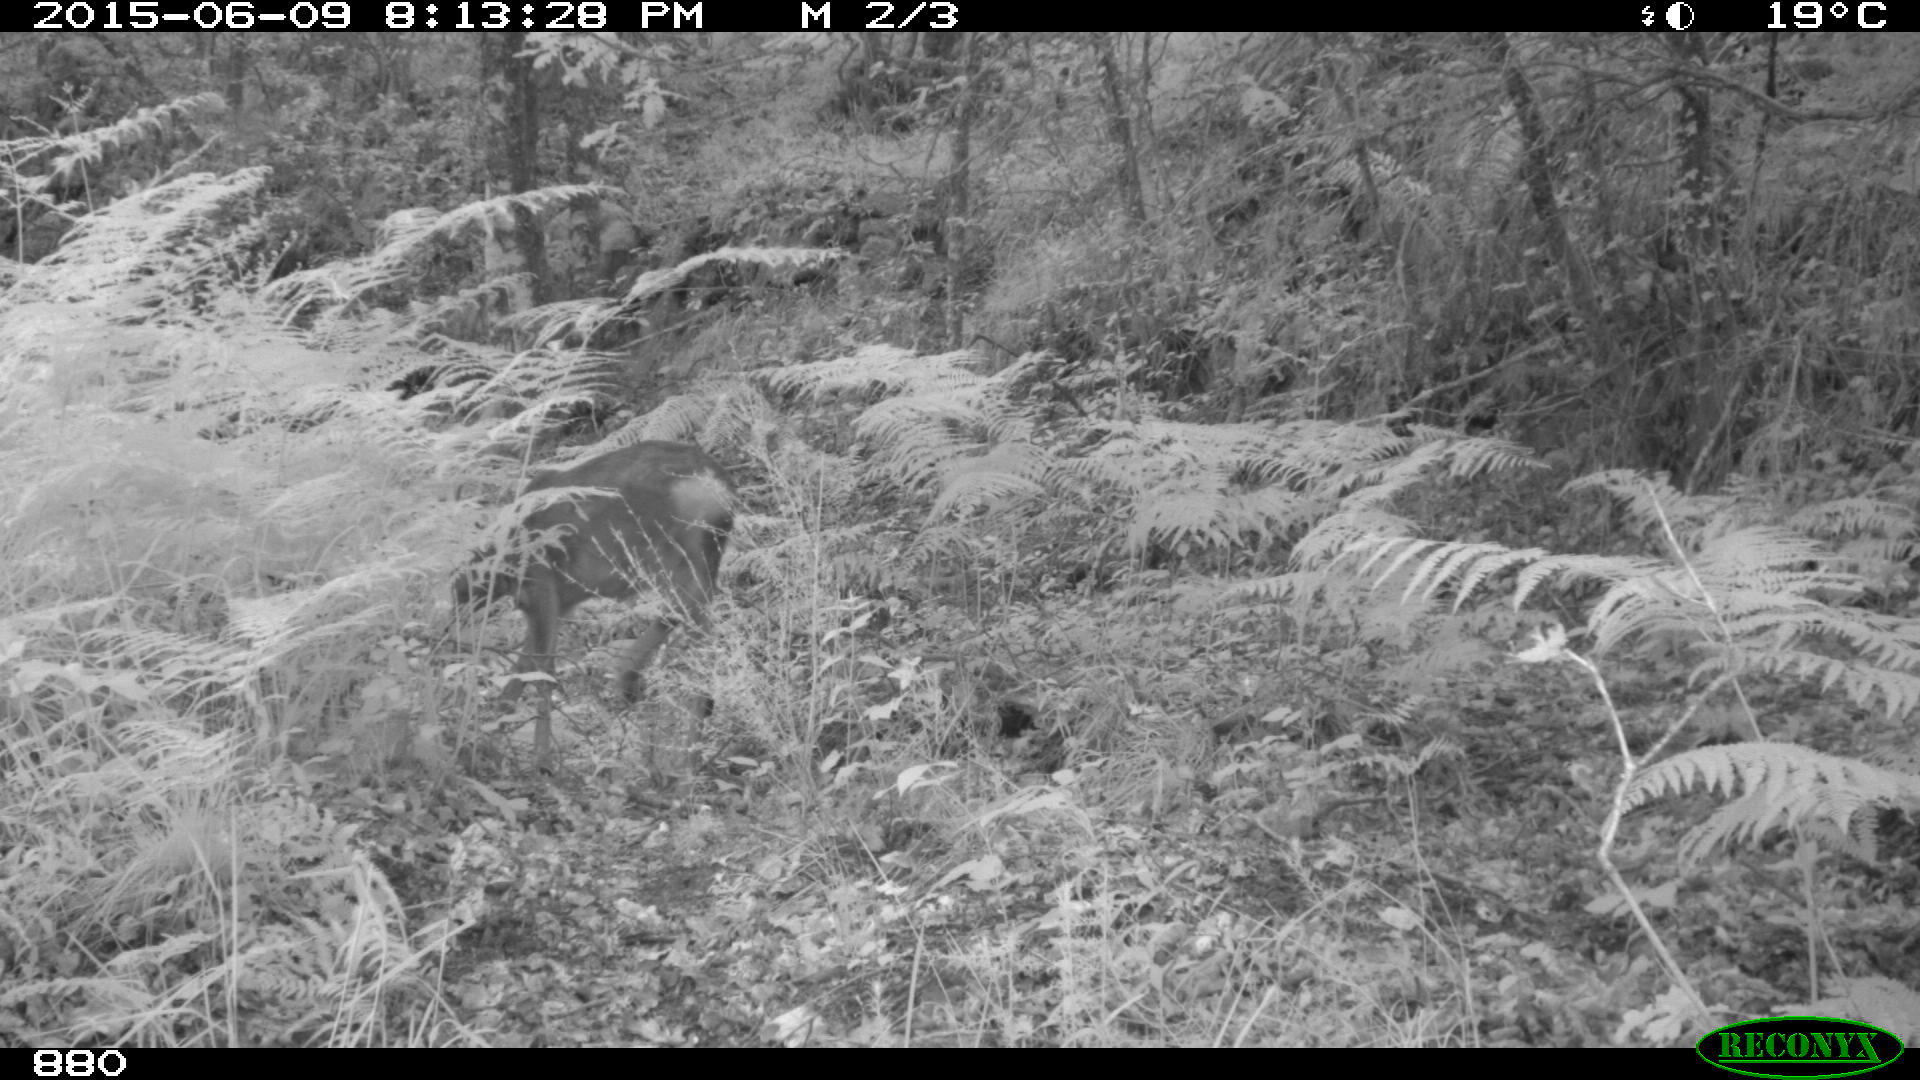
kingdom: Animalia
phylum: Chordata
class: Mammalia
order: Artiodactyla
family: Cervidae
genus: Capreolus
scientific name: Capreolus capreolus
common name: Western roe deer
